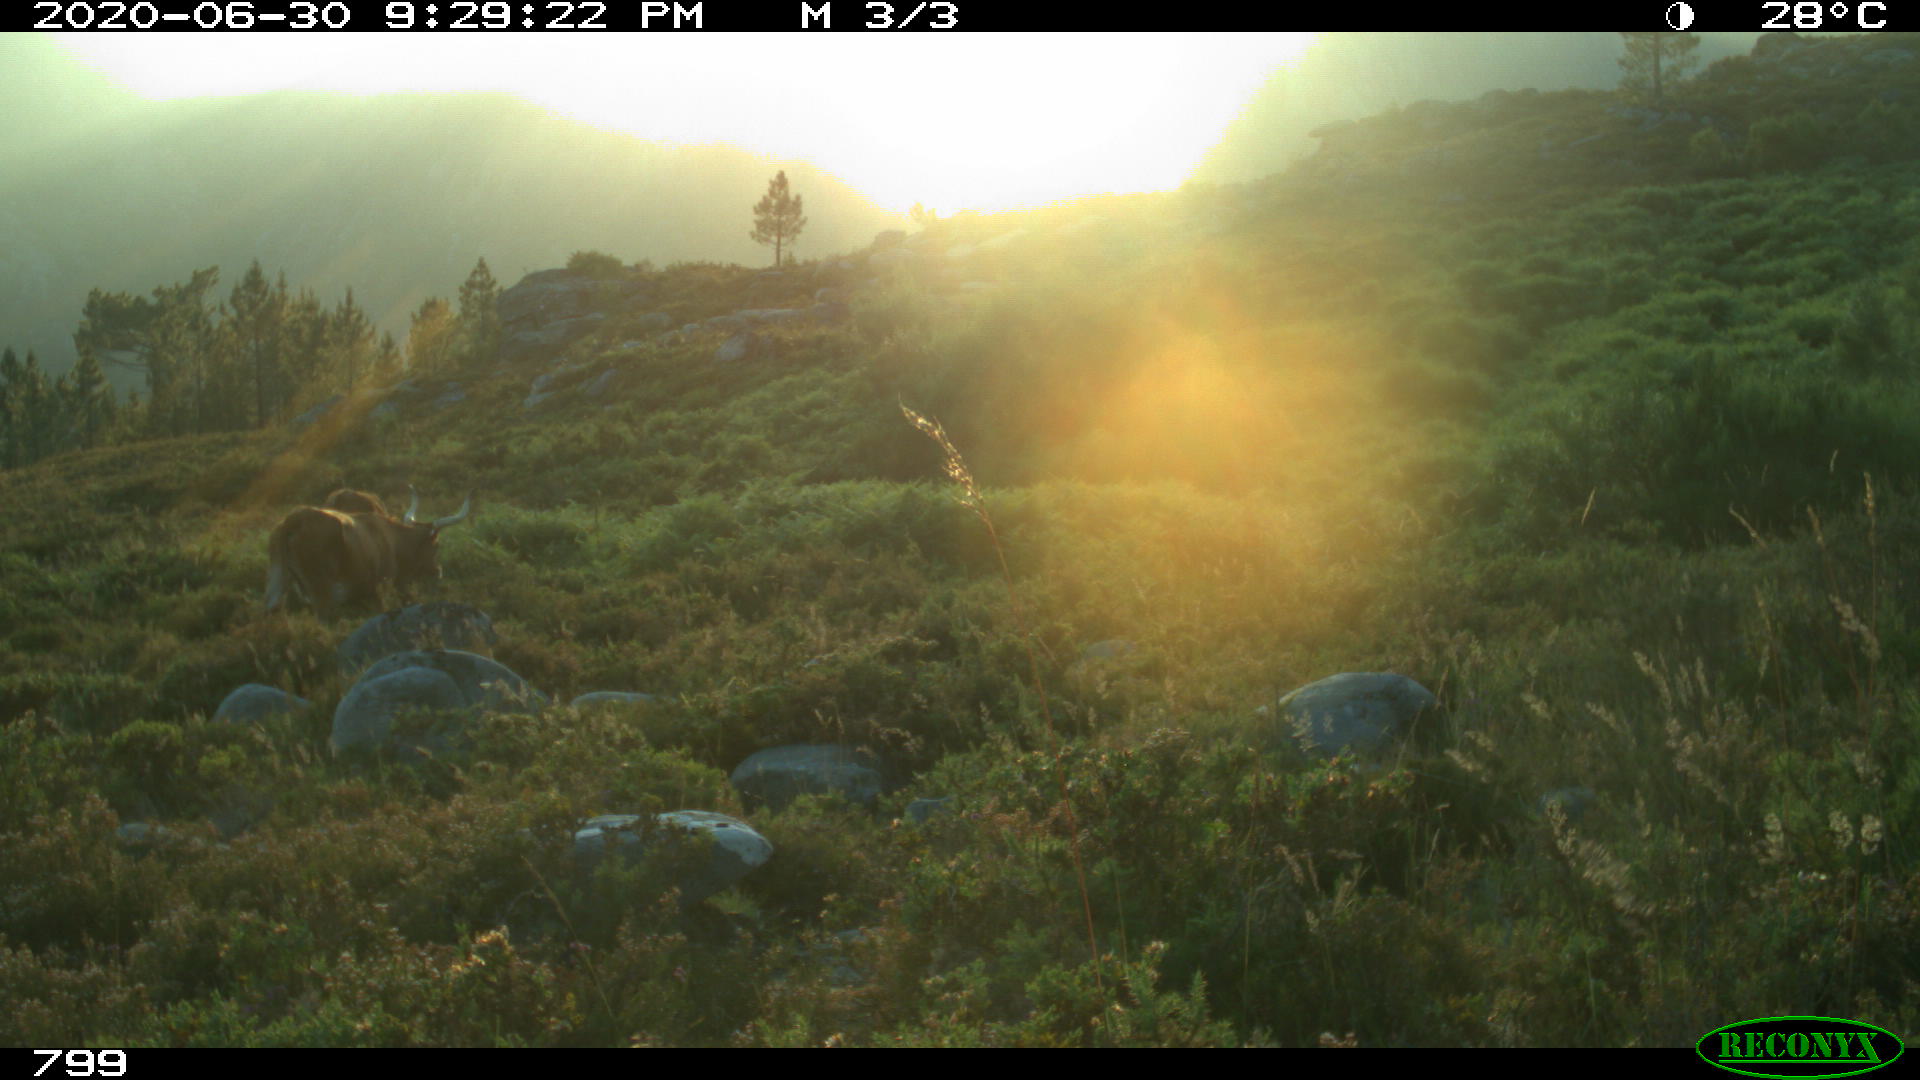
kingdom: Animalia
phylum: Chordata
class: Mammalia
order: Artiodactyla
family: Bovidae
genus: Bos
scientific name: Bos taurus
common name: Domesticated cattle
